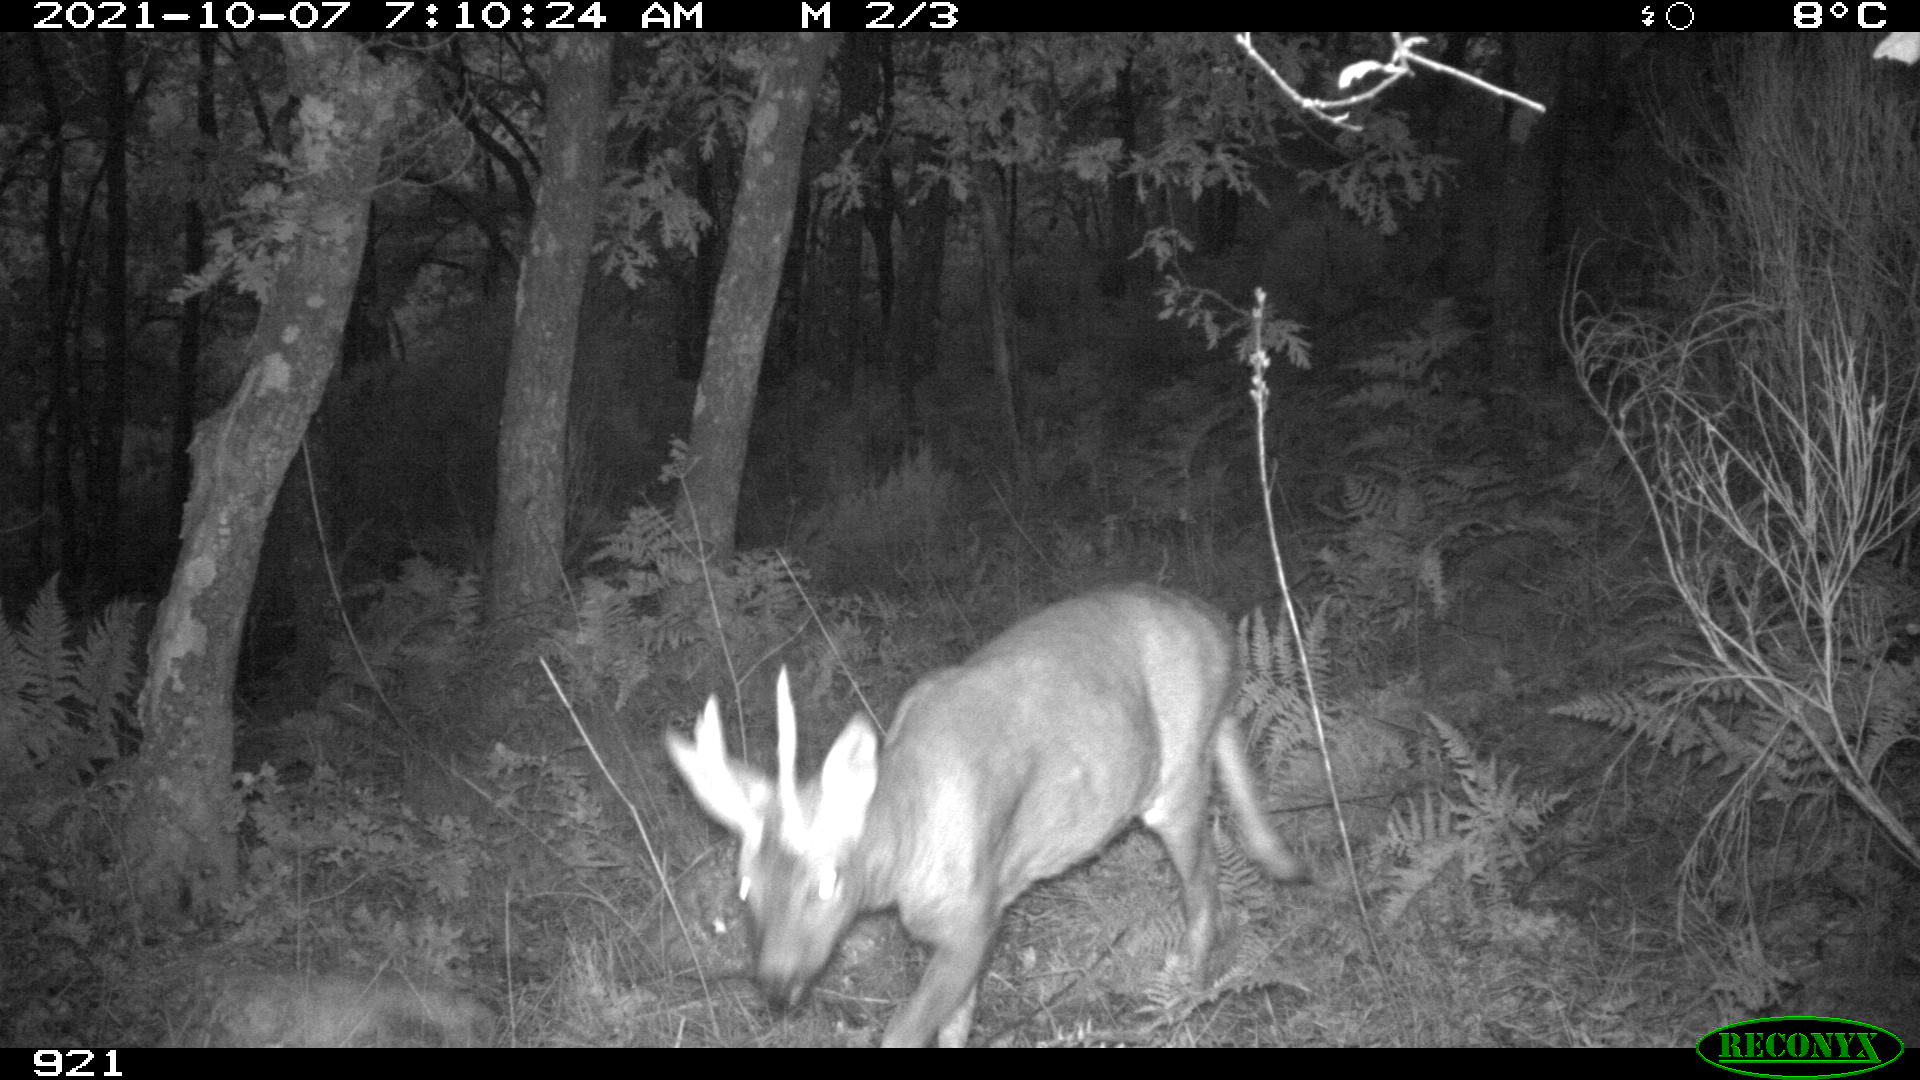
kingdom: Animalia
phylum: Chordata
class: Mammalia
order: Artiodactyla
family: Cervidae
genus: Capreolus
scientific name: Capreolus capreolus
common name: Western roe deer
